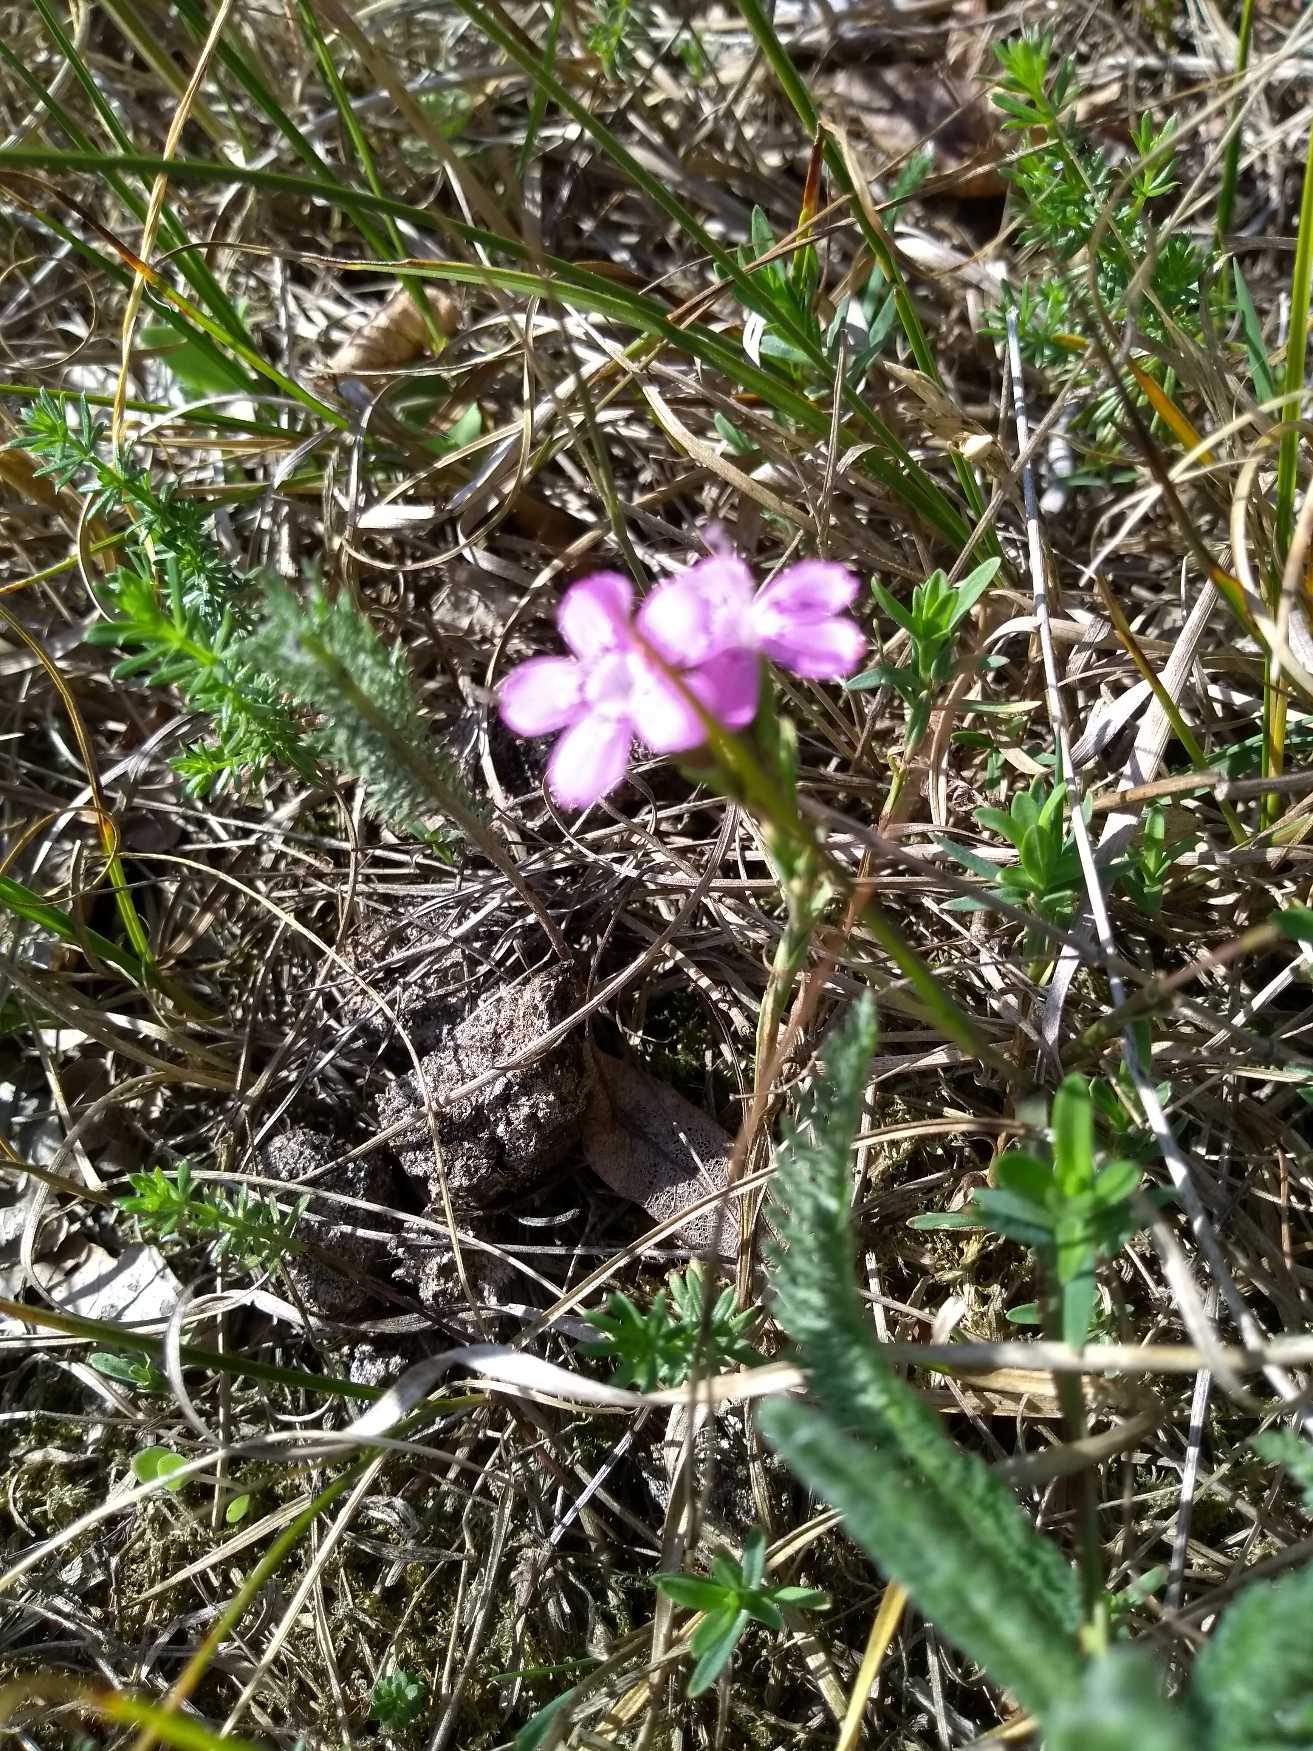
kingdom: Plantae
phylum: Tracheophyta
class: Magnoliopsida
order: Caryophyllales
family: Caryophyllaceae
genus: Dianthus
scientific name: Dianthus deltoides
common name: Bakke-nellike
